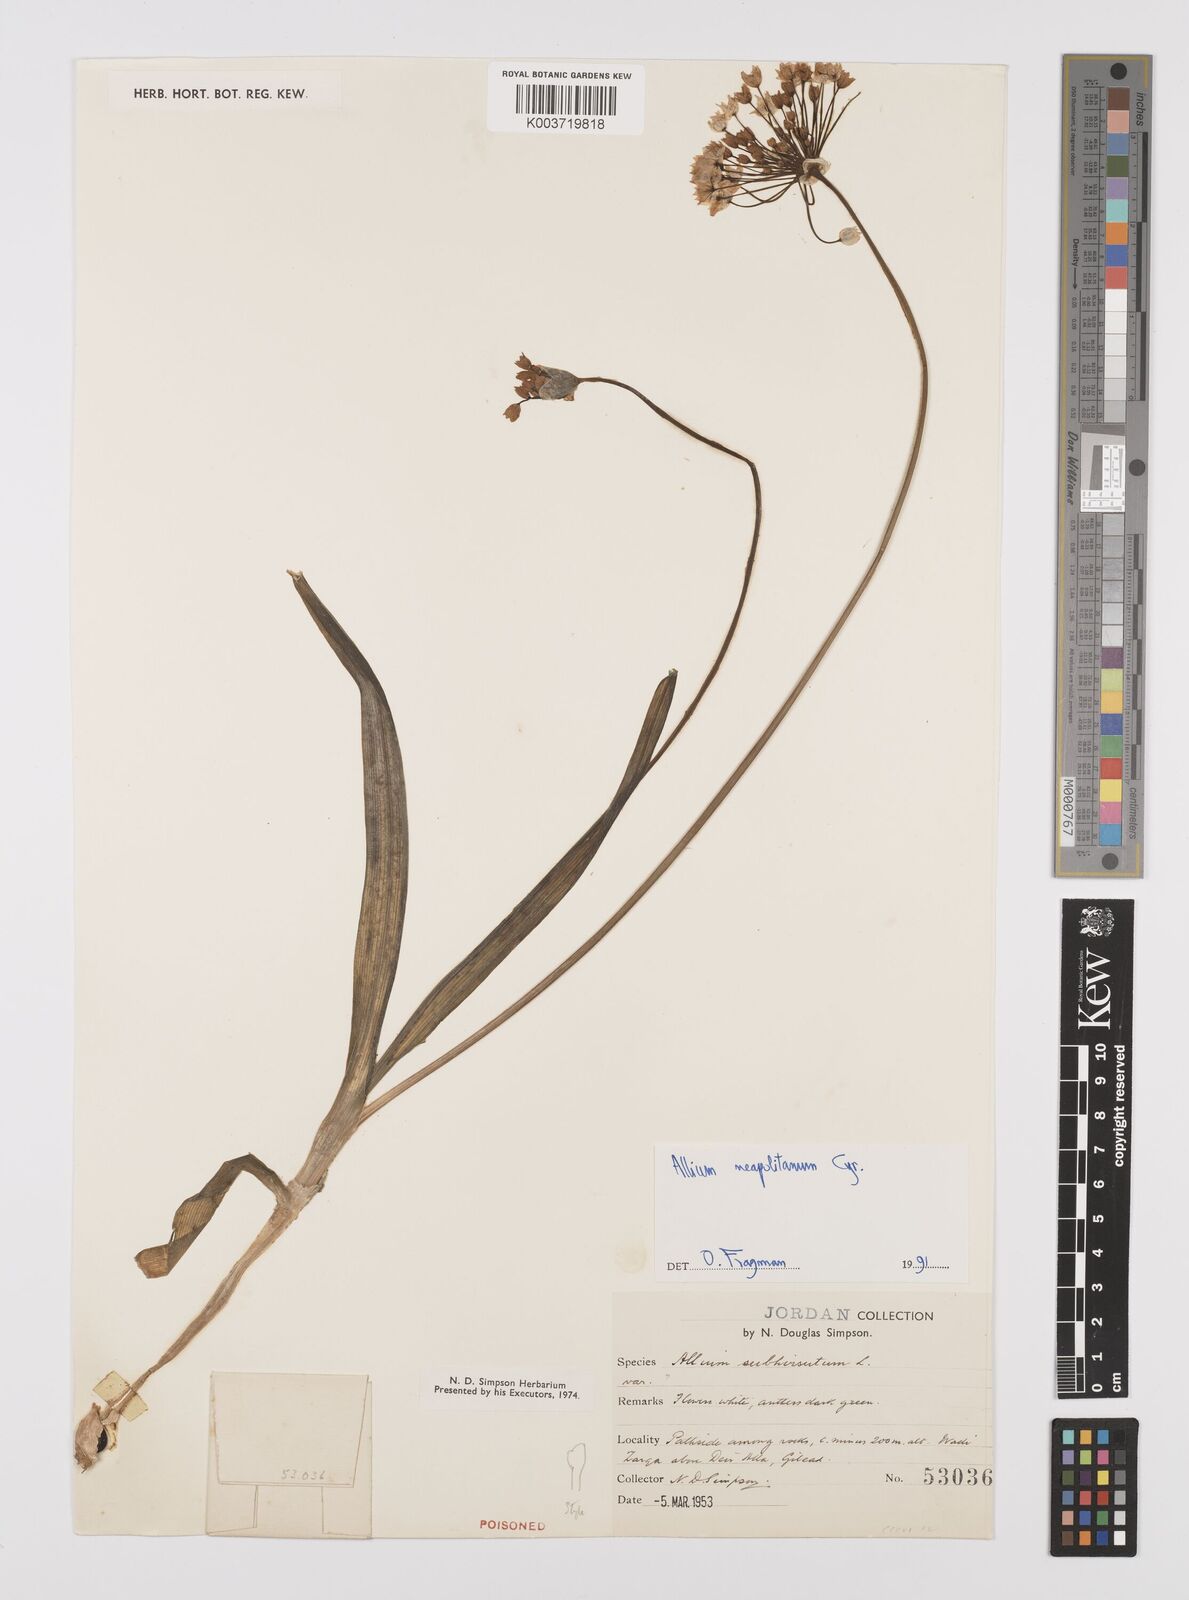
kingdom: Plantae
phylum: Tracheophyta
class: Liliopsida
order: Asparagales
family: Amaryllidaceae
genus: Allium
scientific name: Allium neapolitanum
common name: Neapolitan garlic
